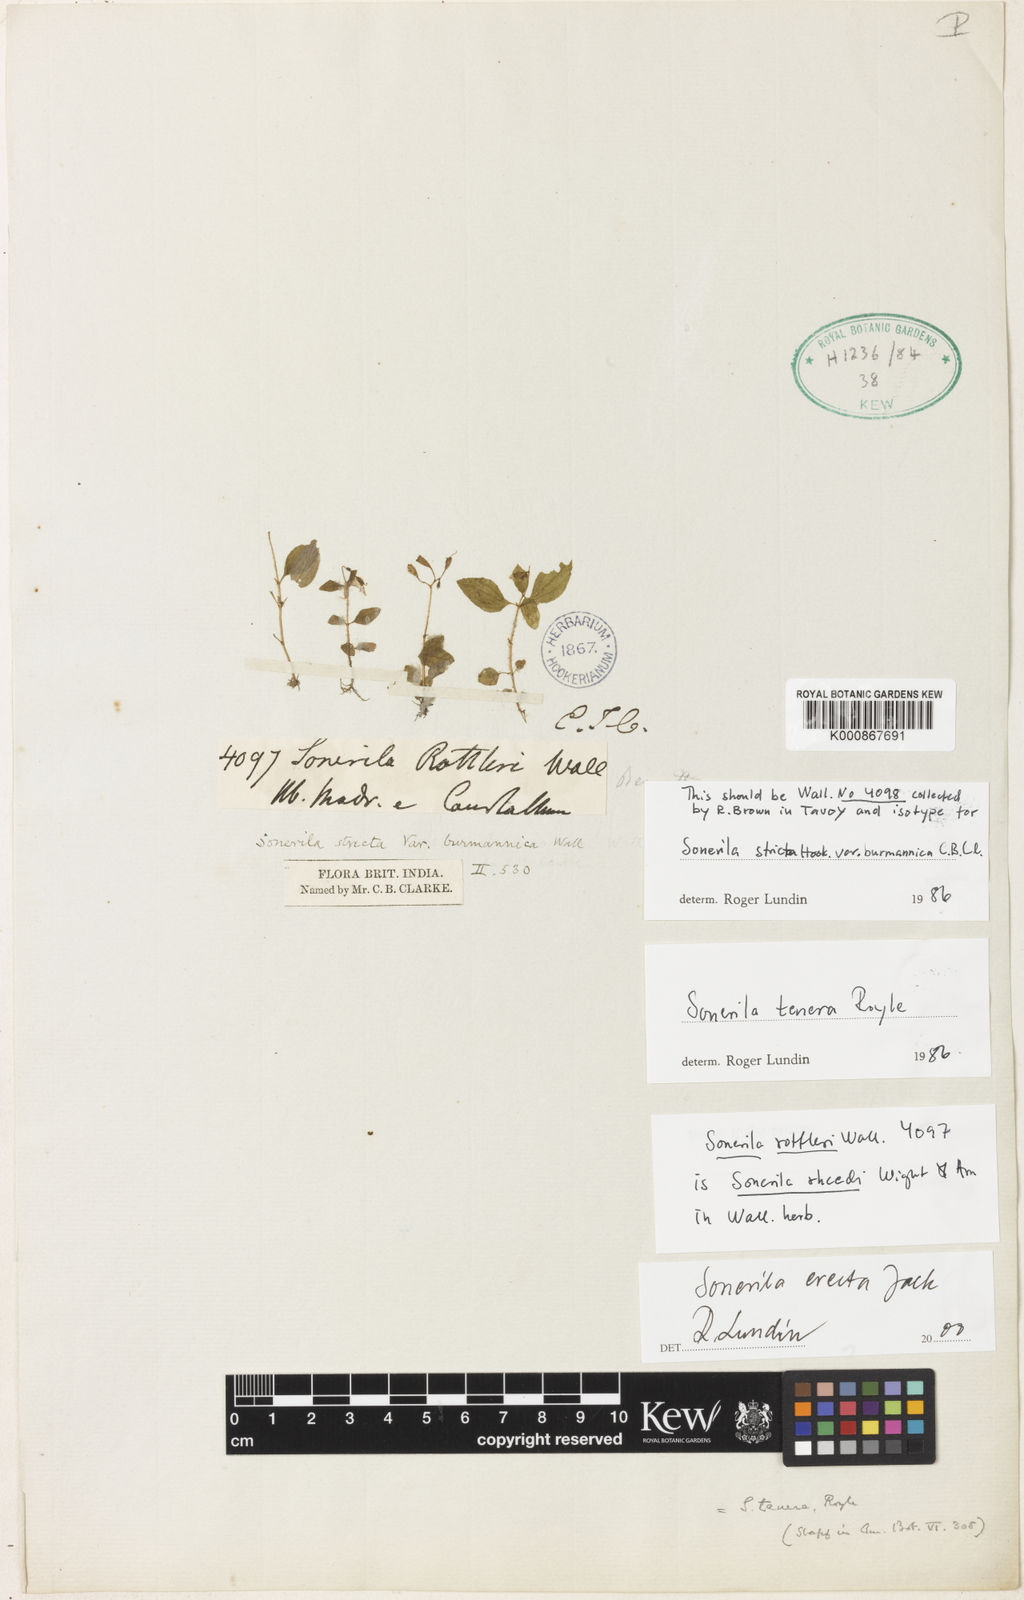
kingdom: Plantae
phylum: Tracheophyta
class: Magnoliopsida
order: Myrtales
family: Melastomataceae
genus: Sonerila
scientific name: Sonerila erecta
